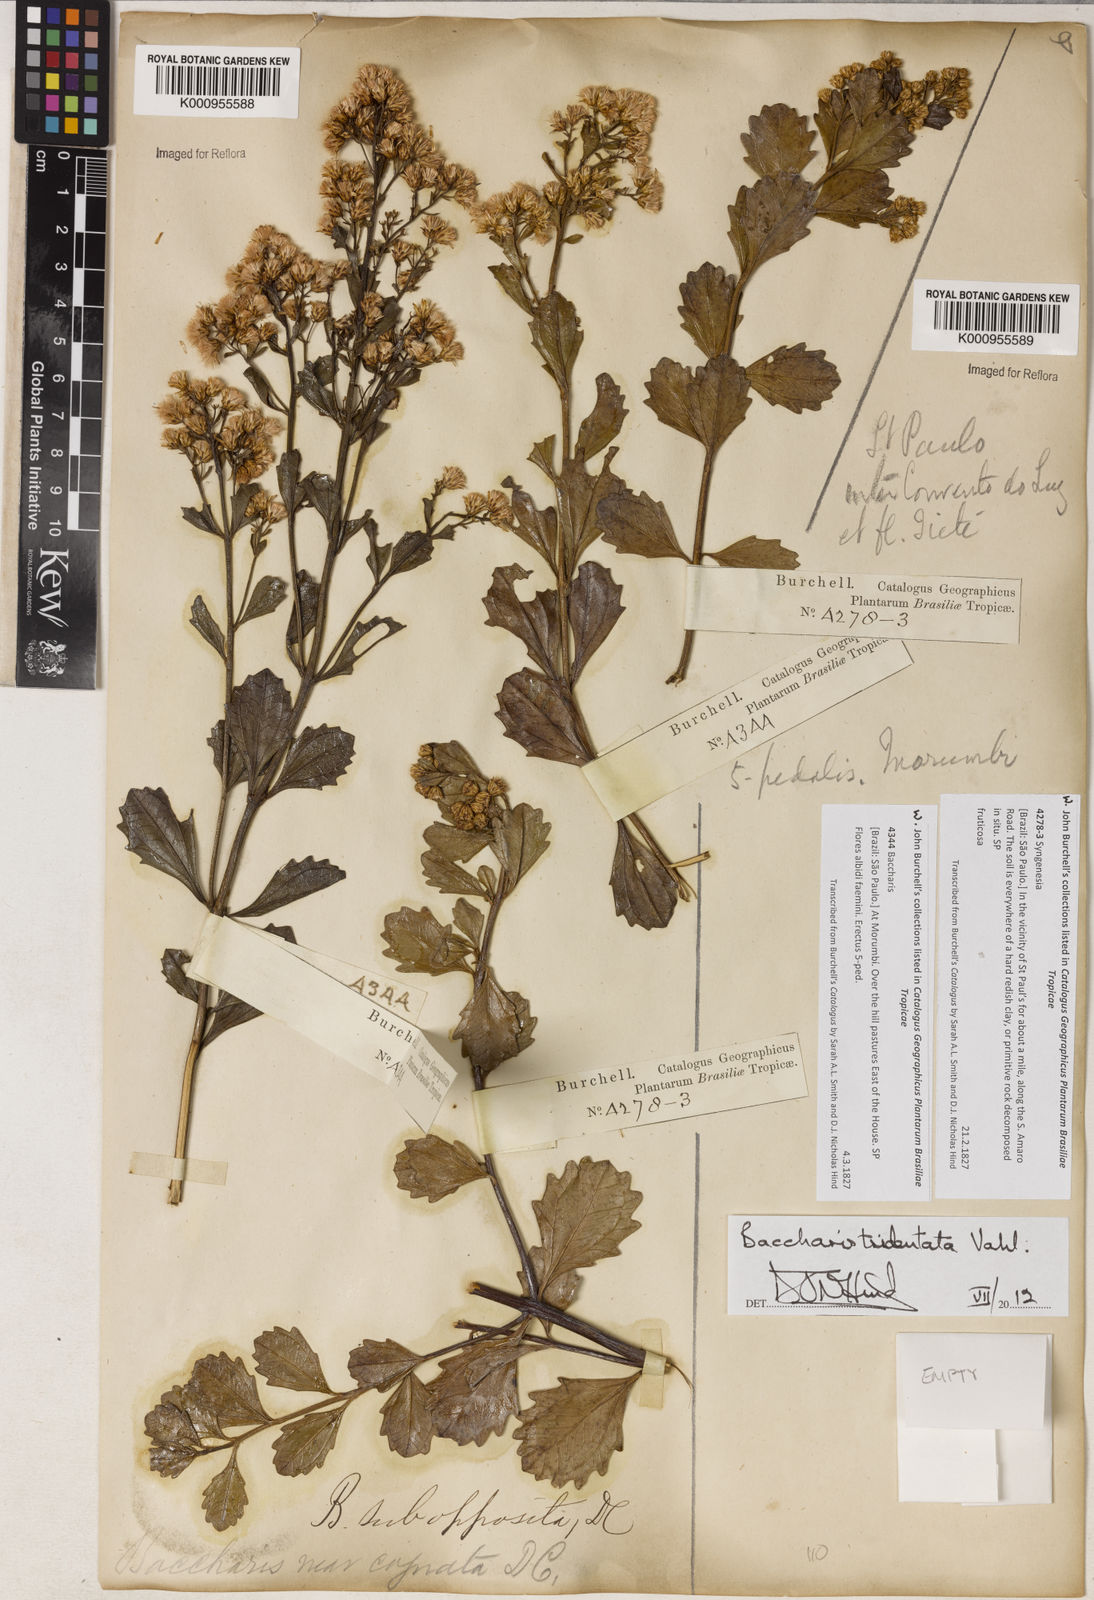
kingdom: Plantae
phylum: Tracheophyta
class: Magnoliopsida
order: Asterales
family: Asteraceae
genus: Baccharis
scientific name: Baccharis
